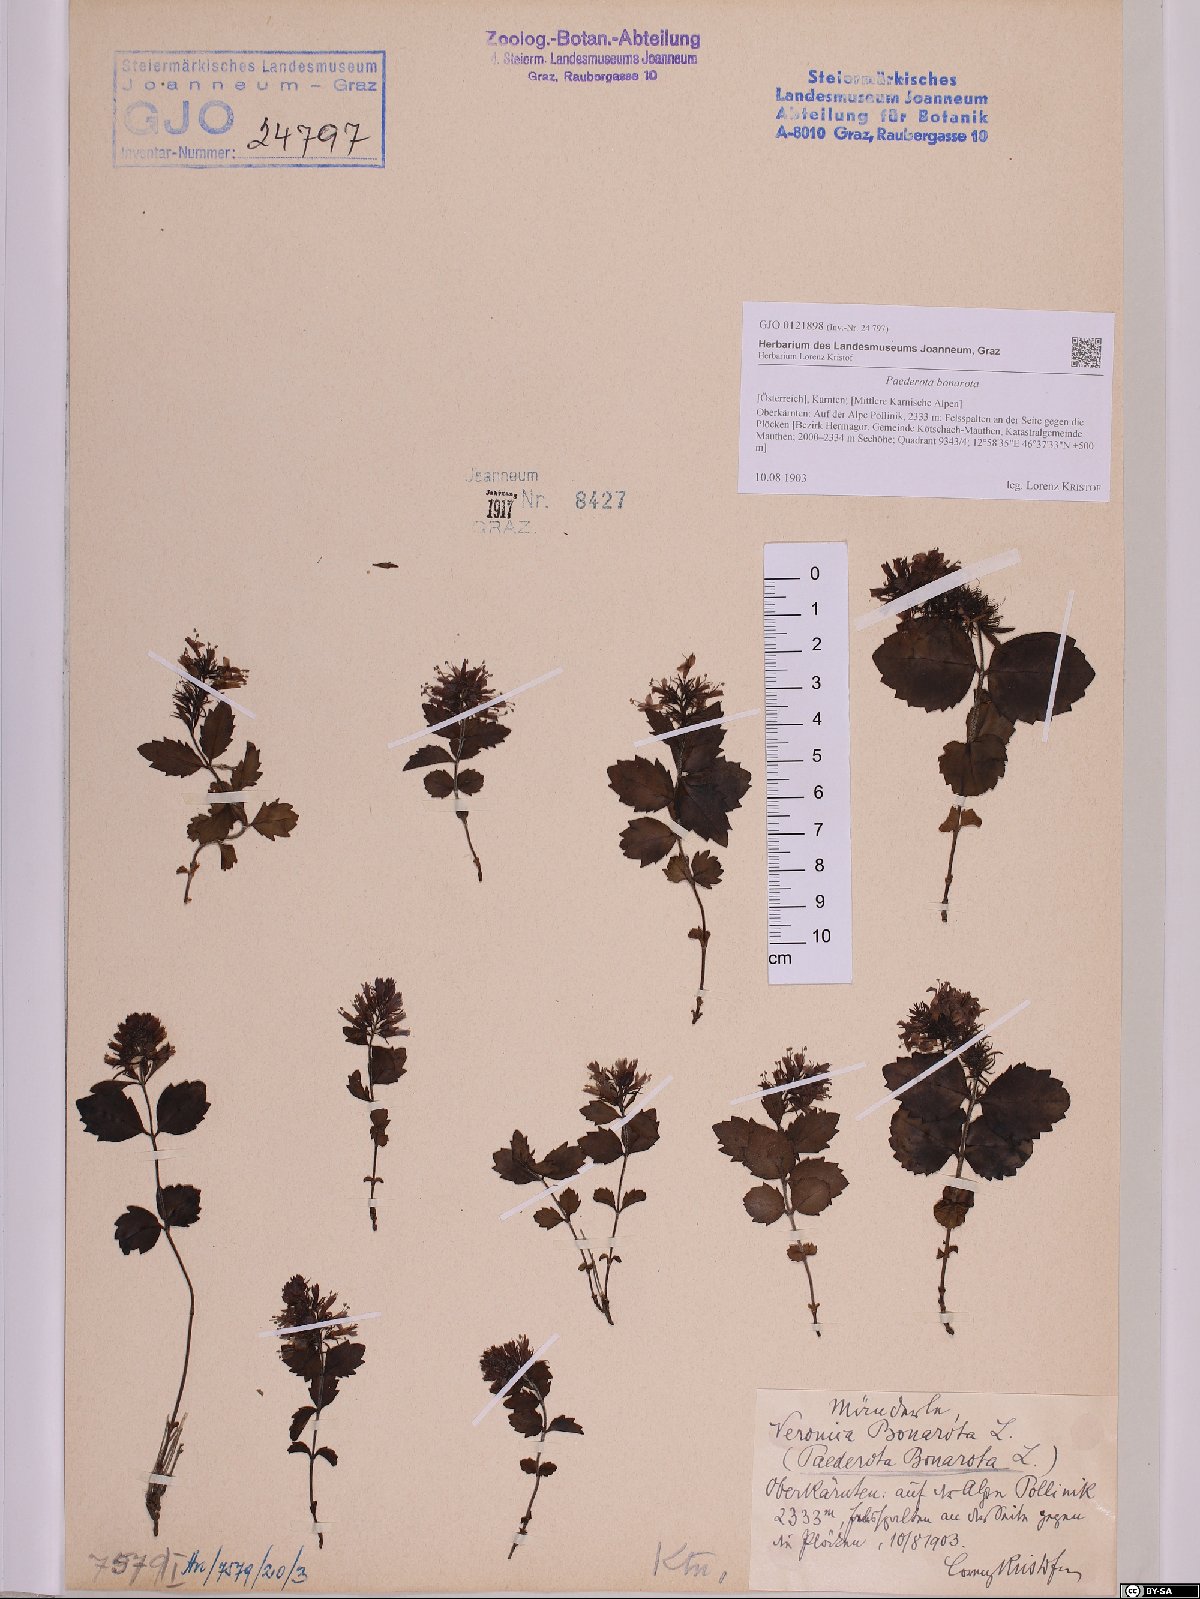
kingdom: Plantae
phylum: Tracheophyta
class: Magnoliopsida
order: Lamiales
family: Plantaginaceae
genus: Paederota
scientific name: Paederota bonarota
